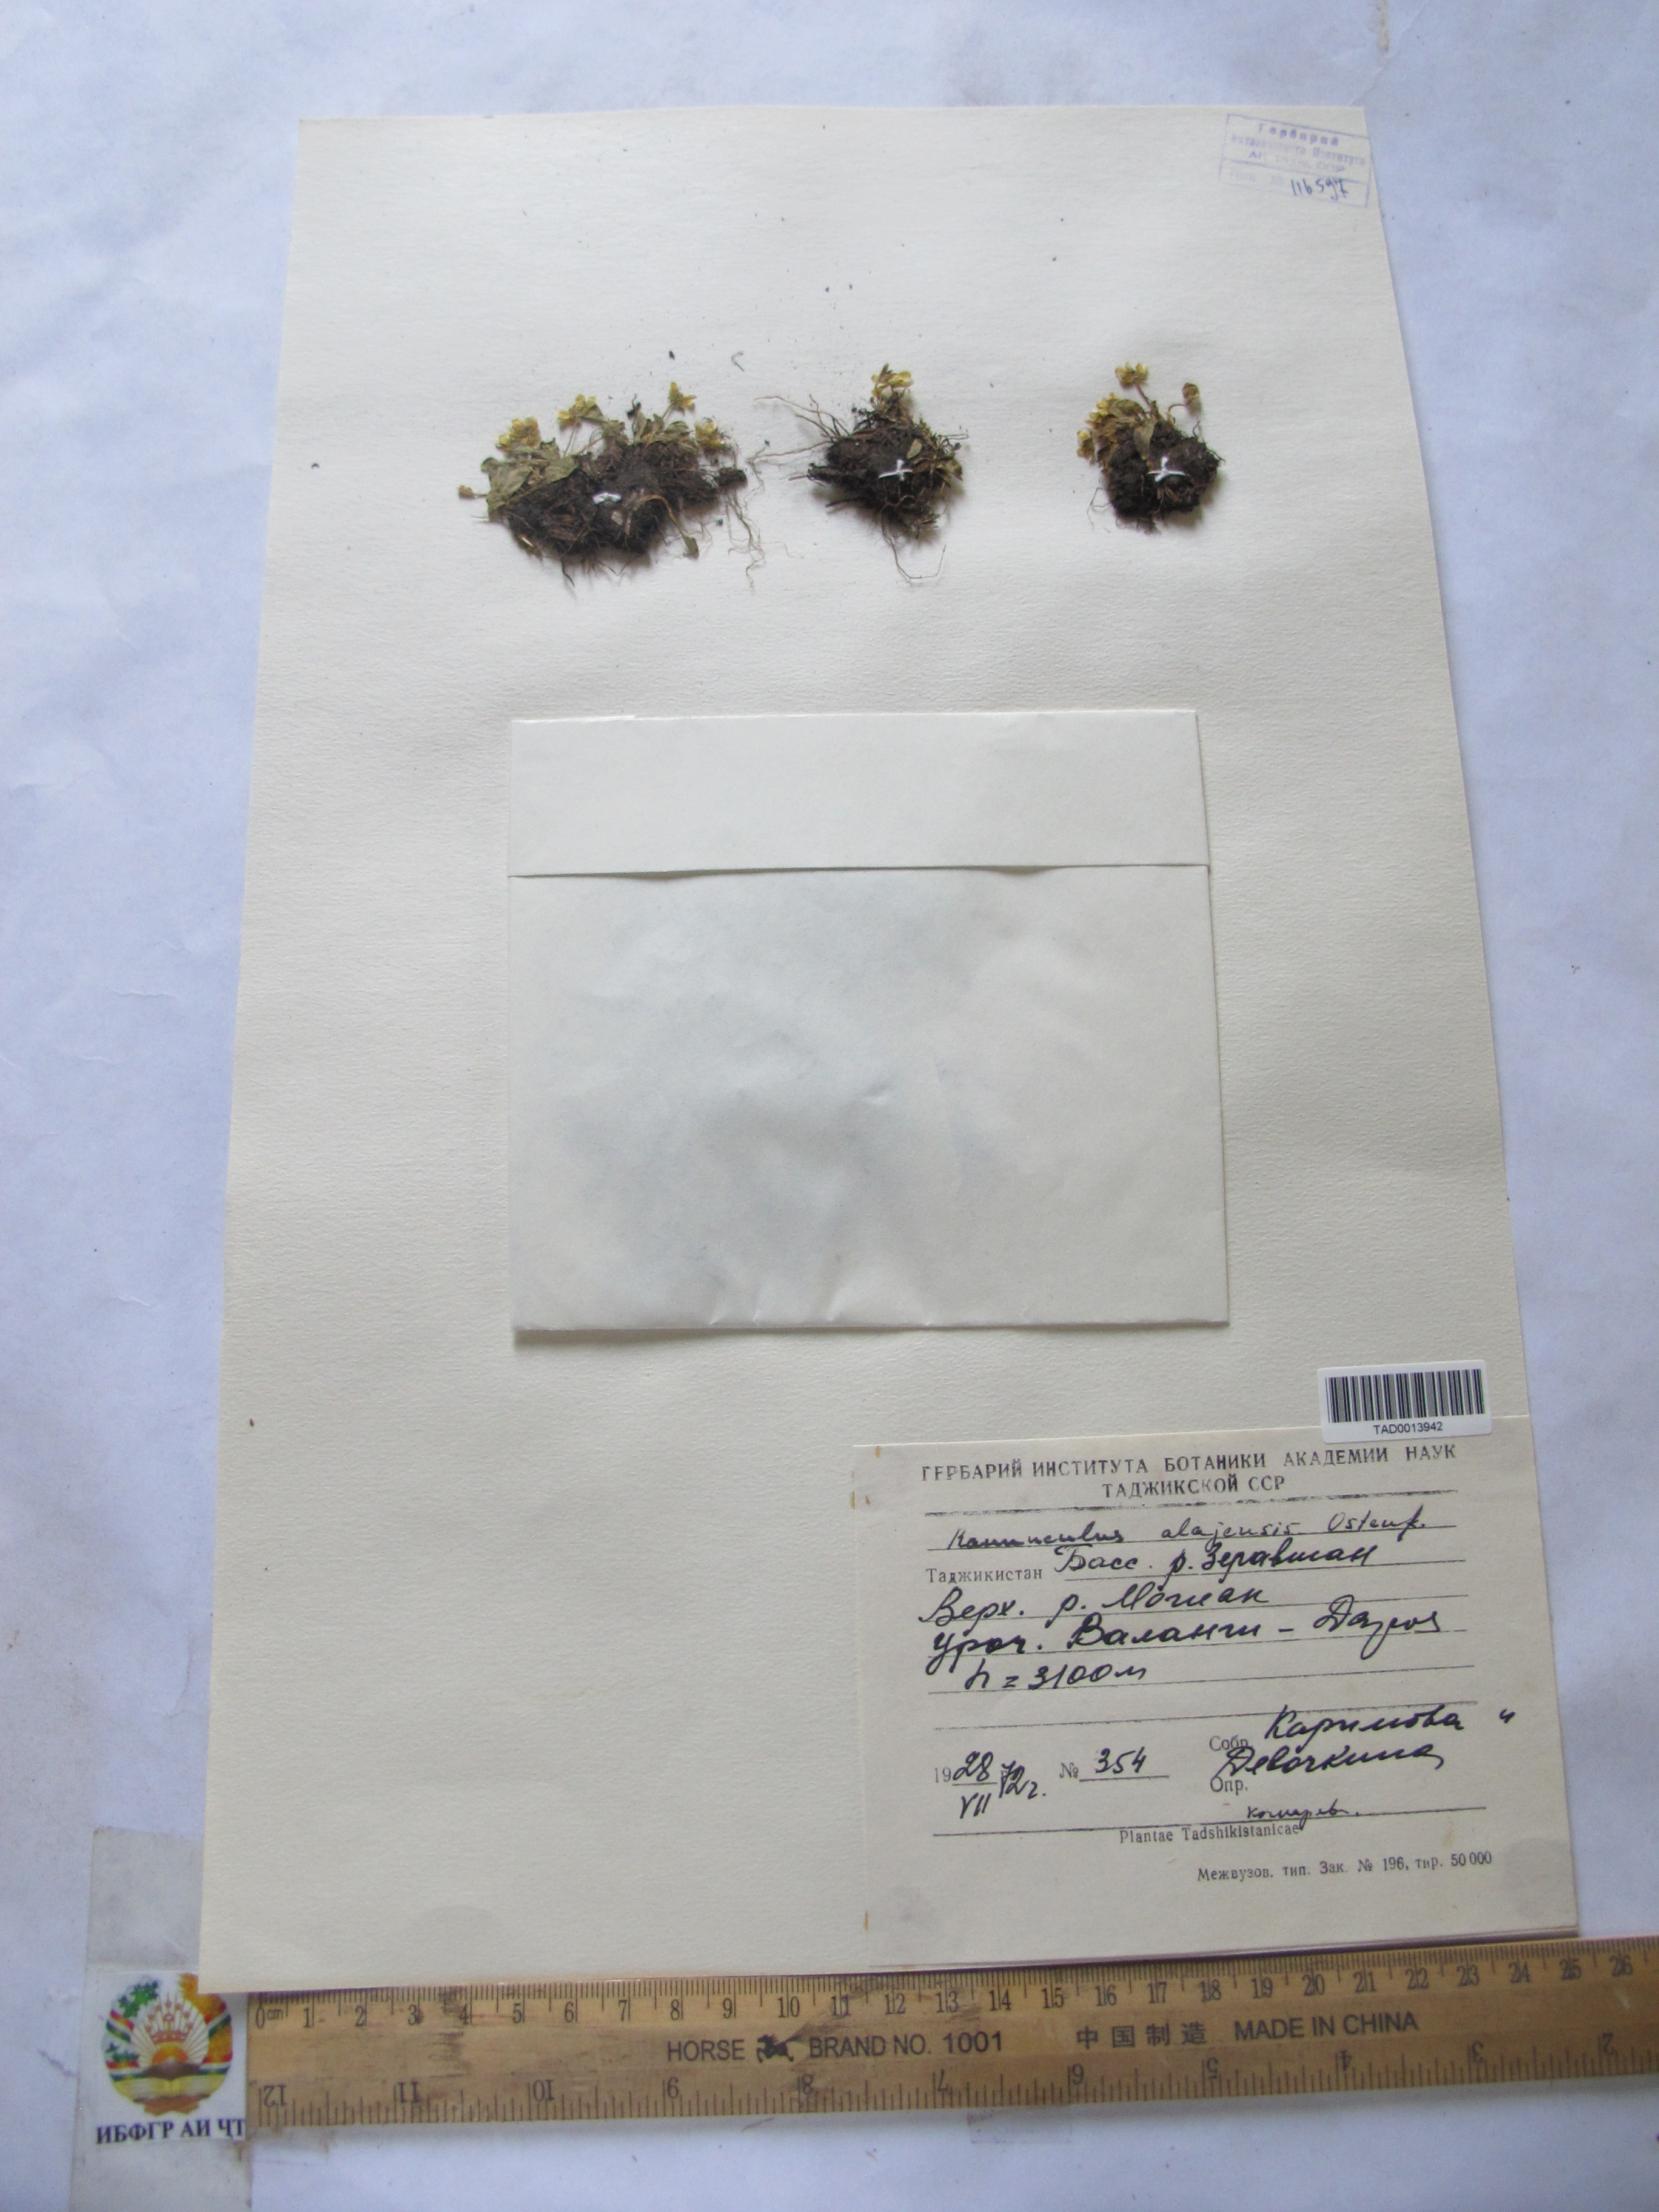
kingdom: Plantae
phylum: Tracheophyta
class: Magnoliopsida
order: Ranunculales
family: Ranunculaceae
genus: Ranunculus
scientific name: Ranunculus alaiensis
